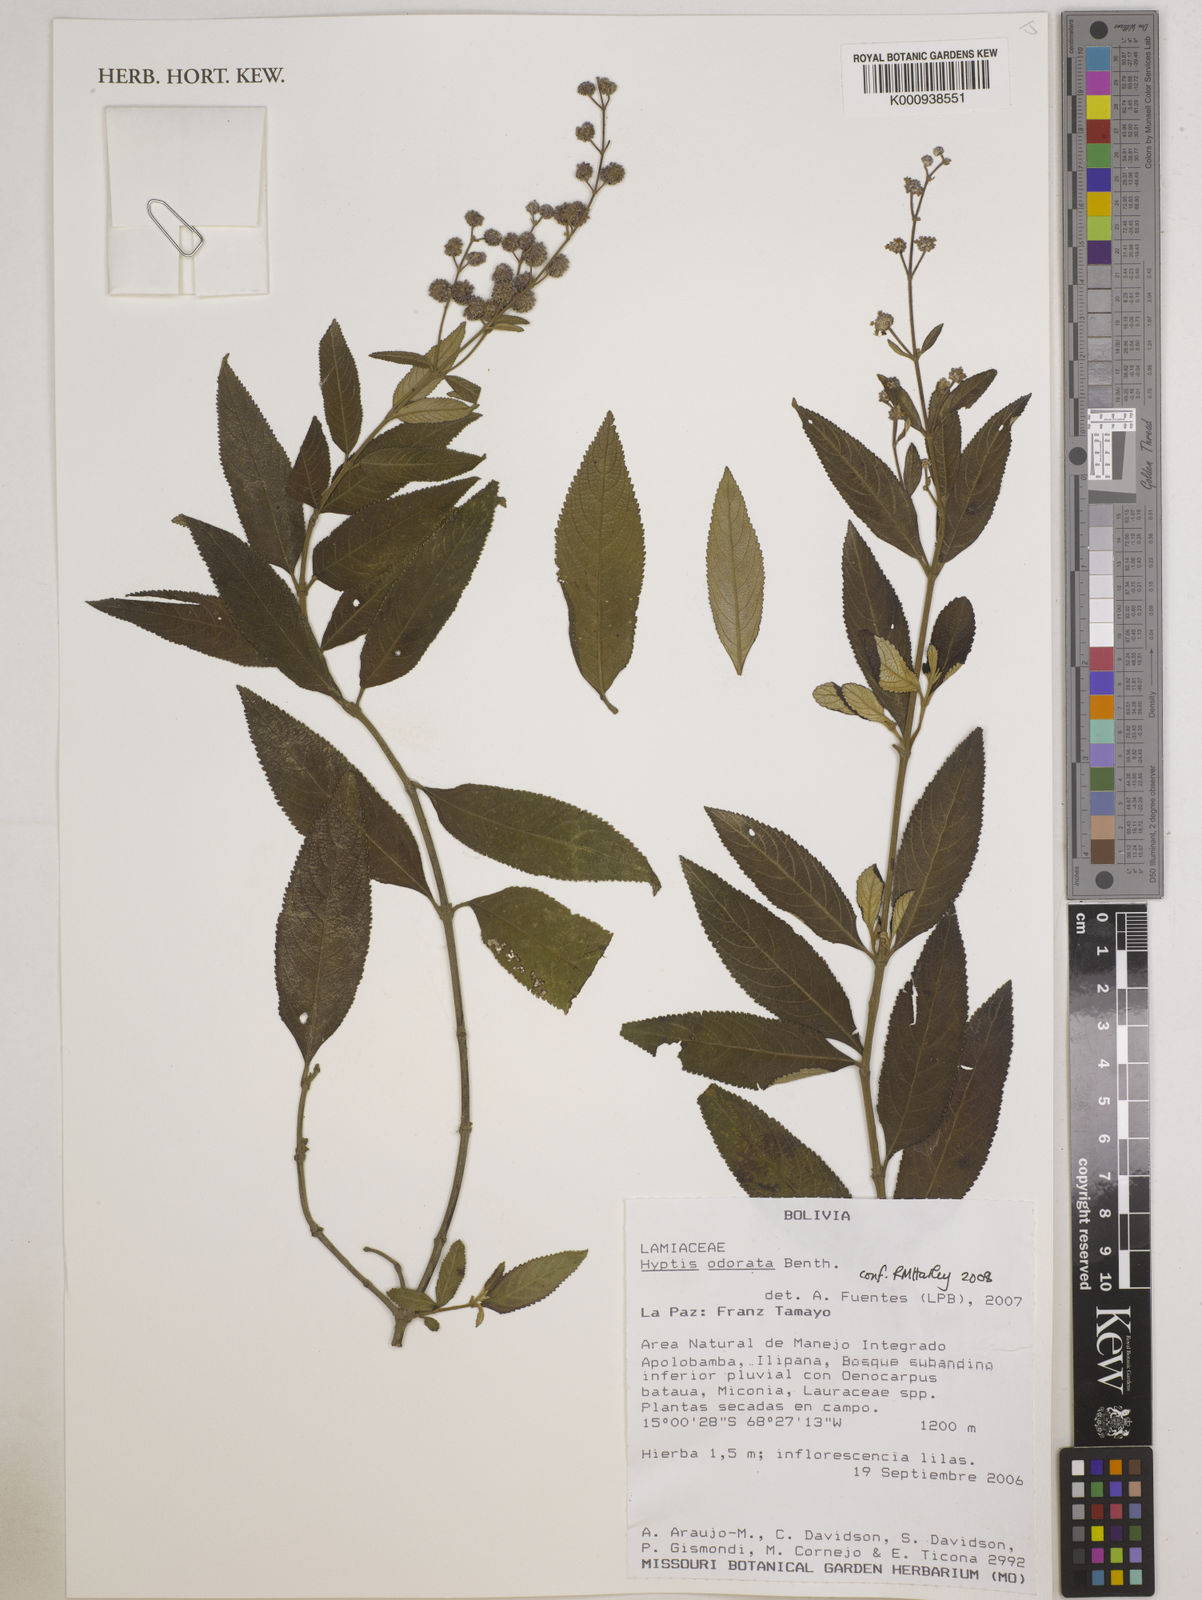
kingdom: Plantae
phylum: Tracheophyta
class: Magnoliopsida
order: Lamiales
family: Lamiaceae
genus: Hyptis
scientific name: Hyptis odorata
